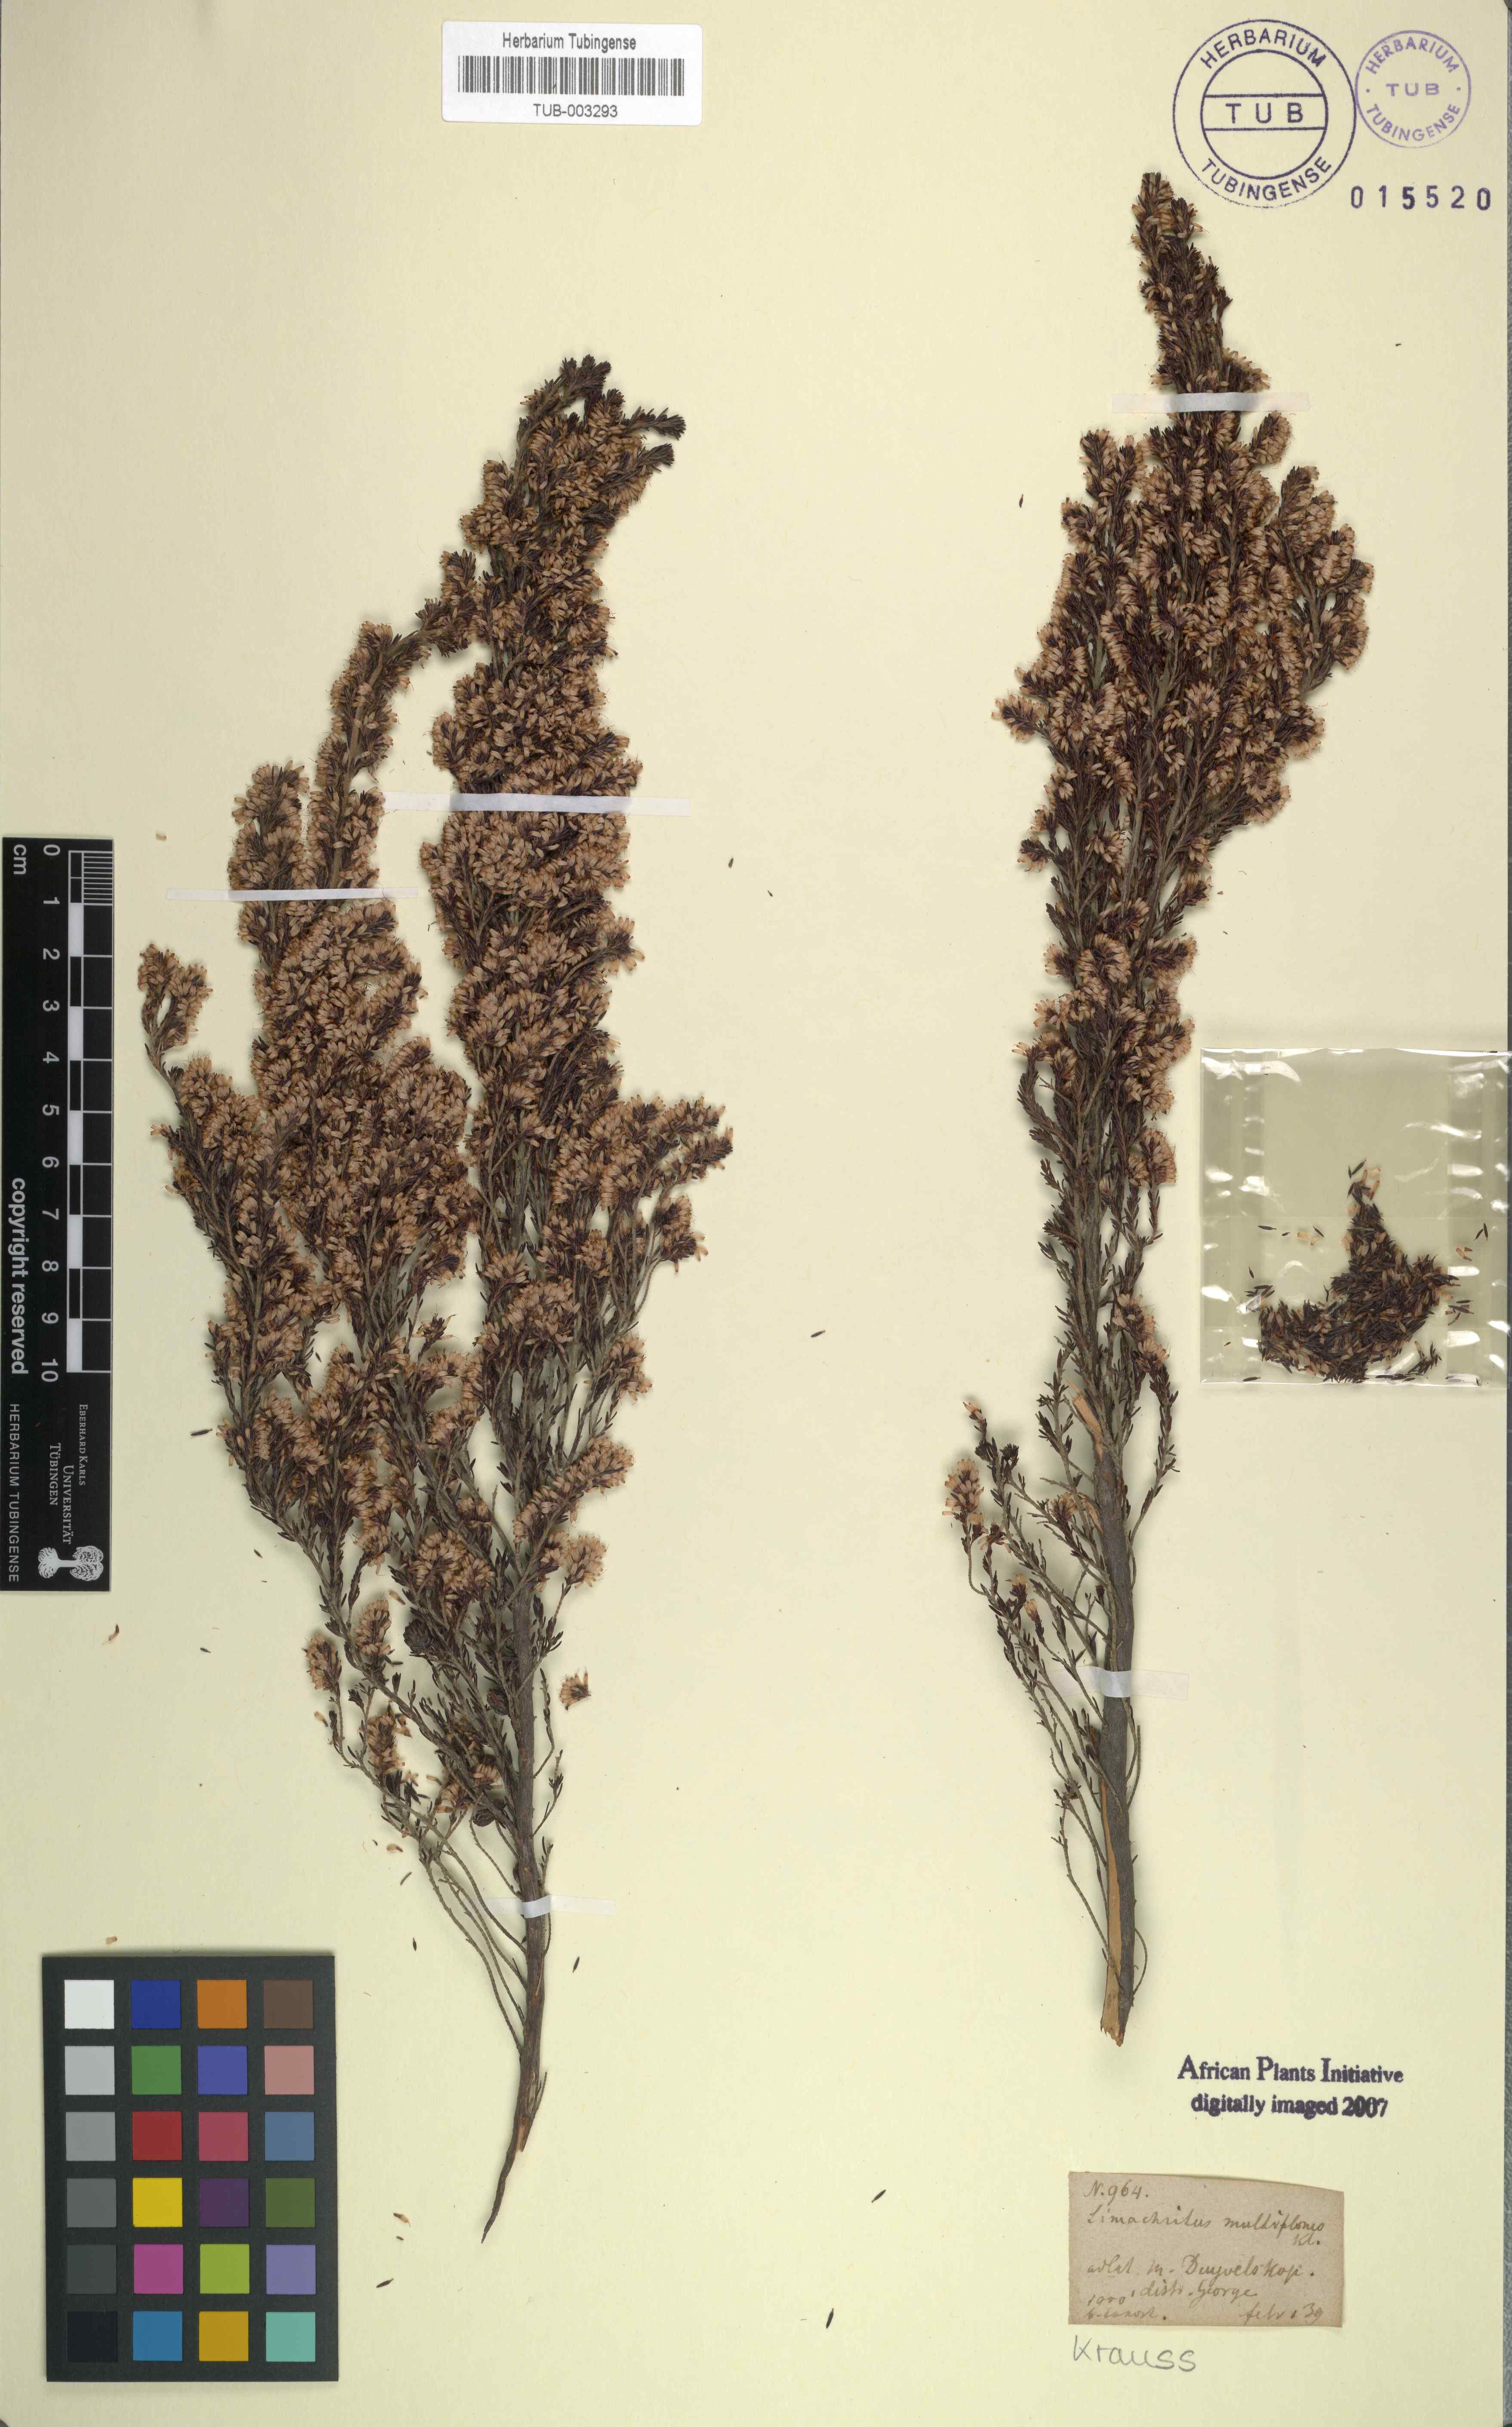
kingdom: Plantae
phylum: Tracheophyta
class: Magnoliopsida
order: Ericales
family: Ericaceae
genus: Erica
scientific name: Erica uberiflora
